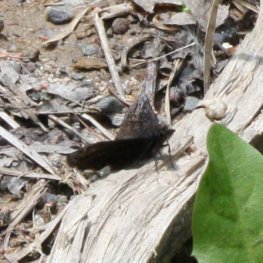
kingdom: Animalia
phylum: Arthropoda
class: Insecta
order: Lepidoptera
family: Hesperiidae
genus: Erynnis
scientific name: Erynnis icelus
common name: Dreamy Duskywing
